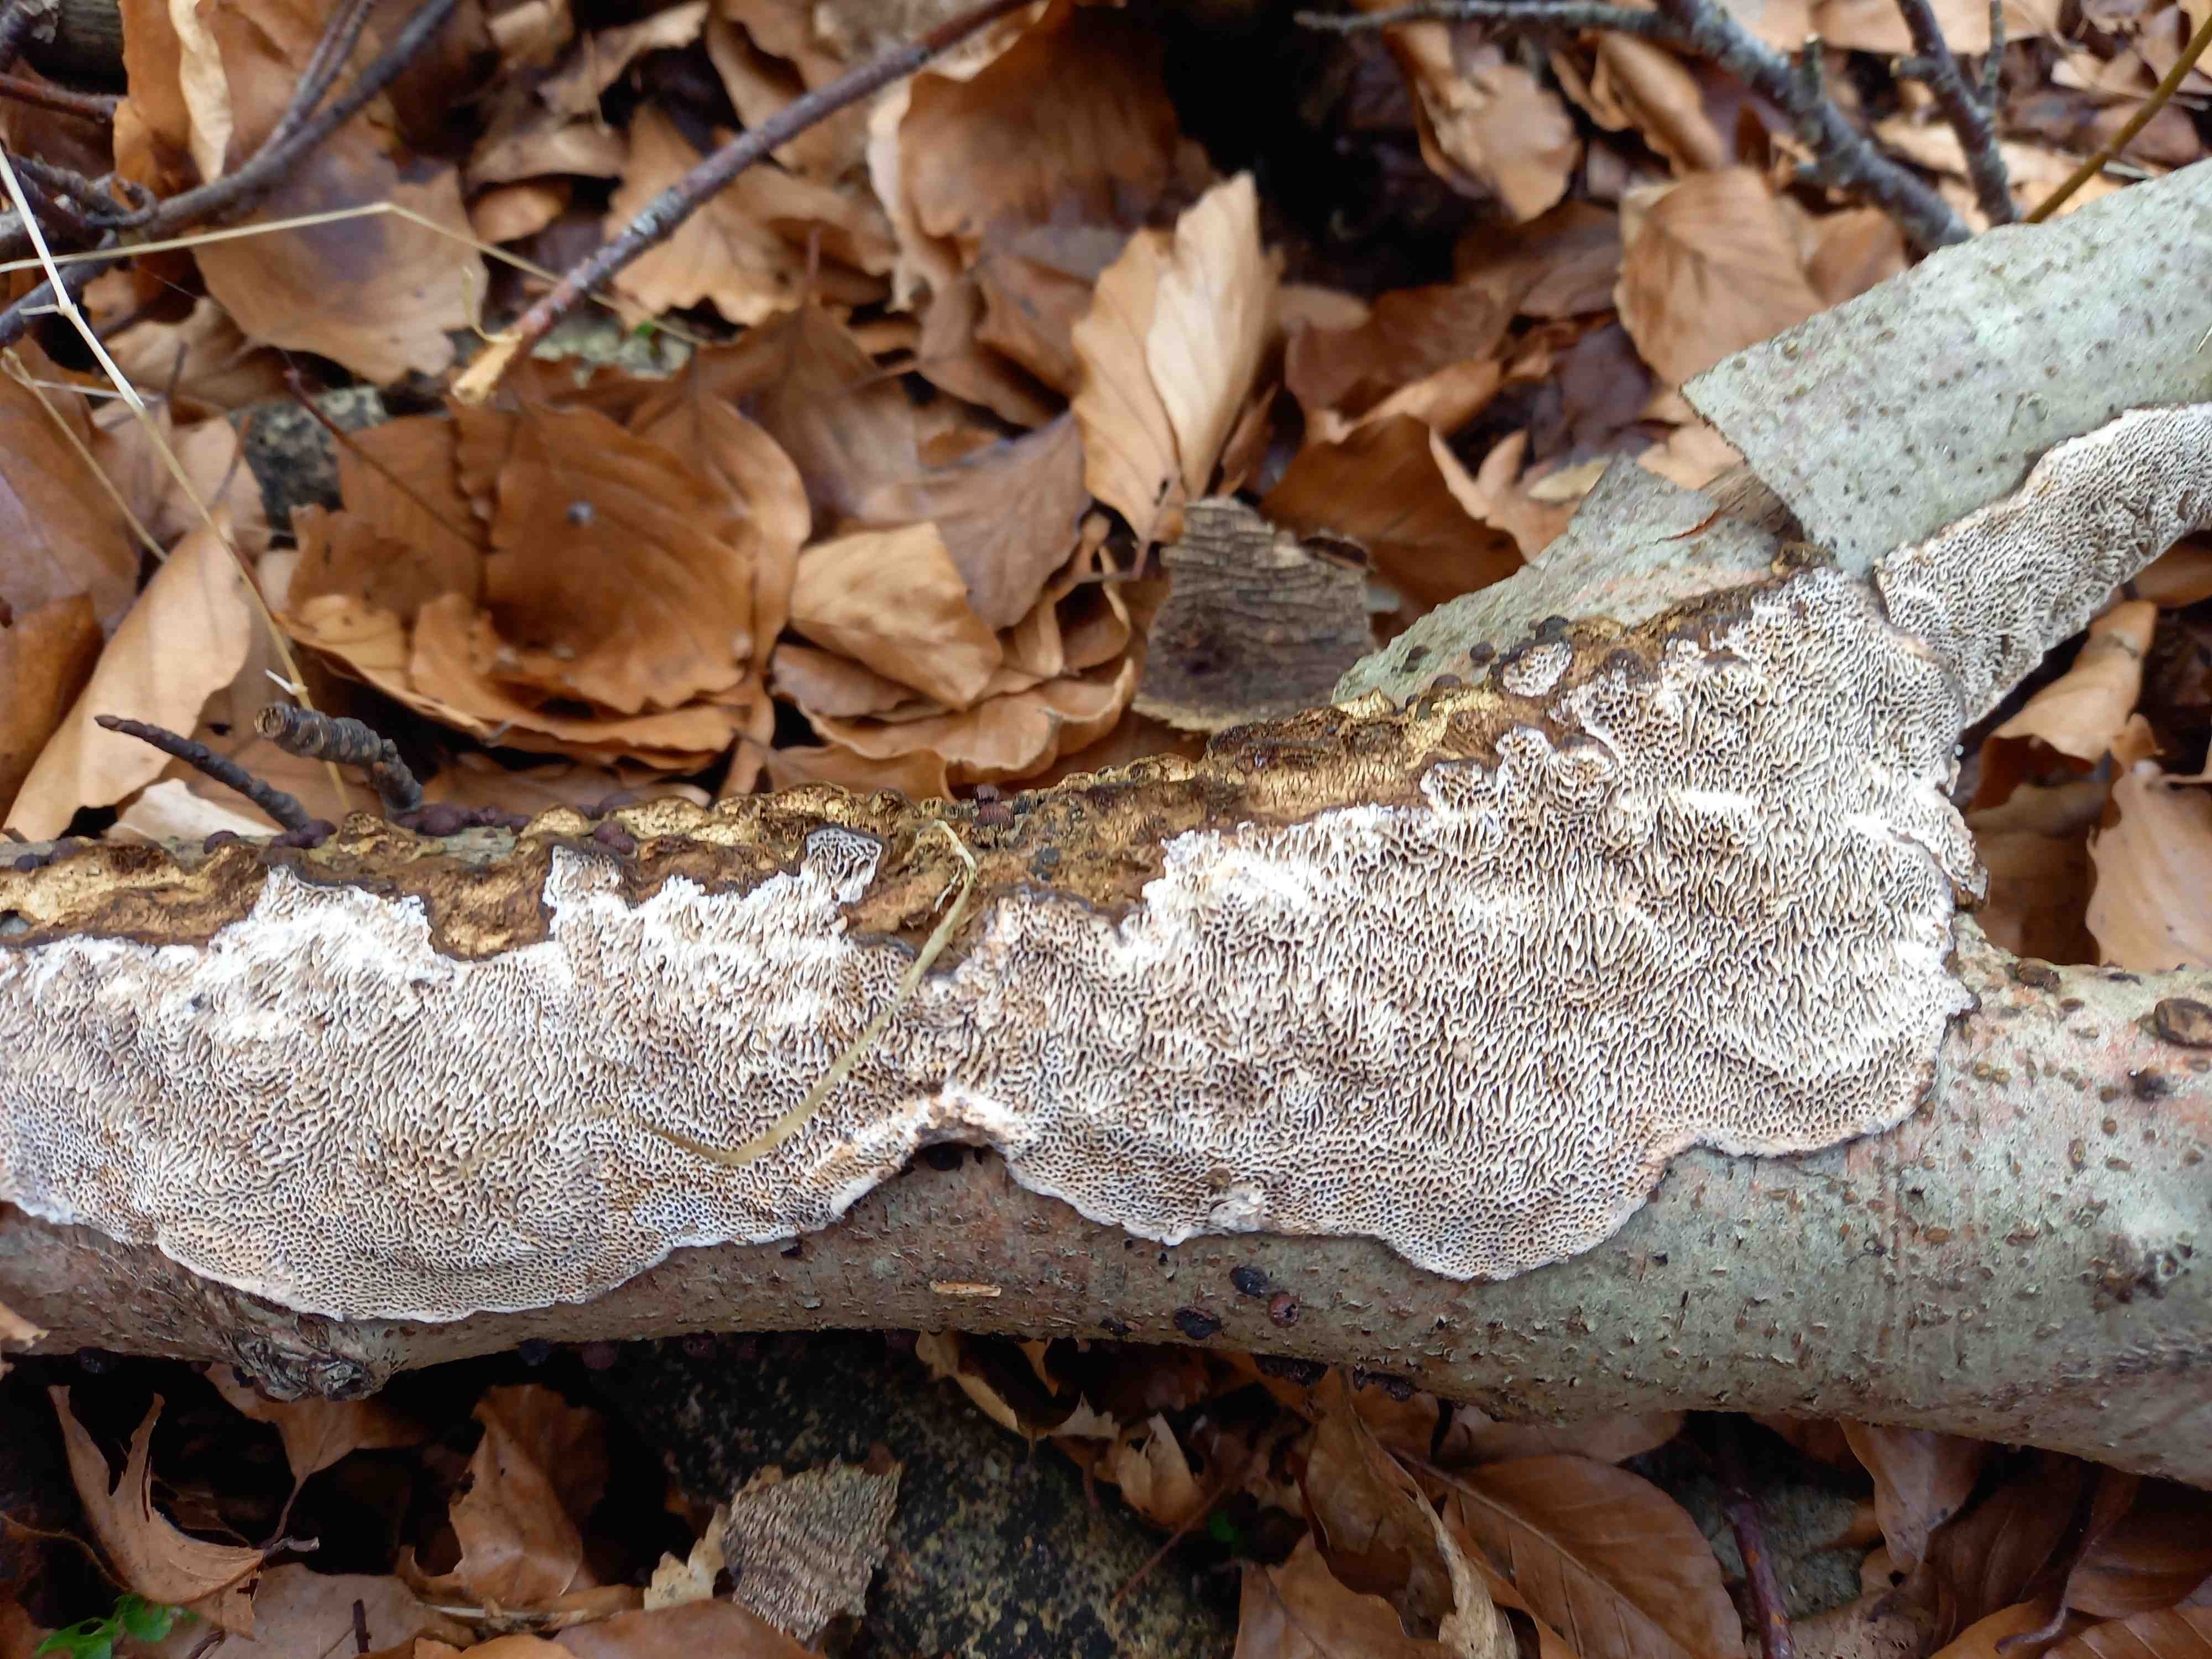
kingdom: Fungi
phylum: Basidiomycota
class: Agaricomycetes
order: Polyporales
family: Polyporaceae
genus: Podofomes
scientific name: Podofomes mollis
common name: blød begporesvamp
